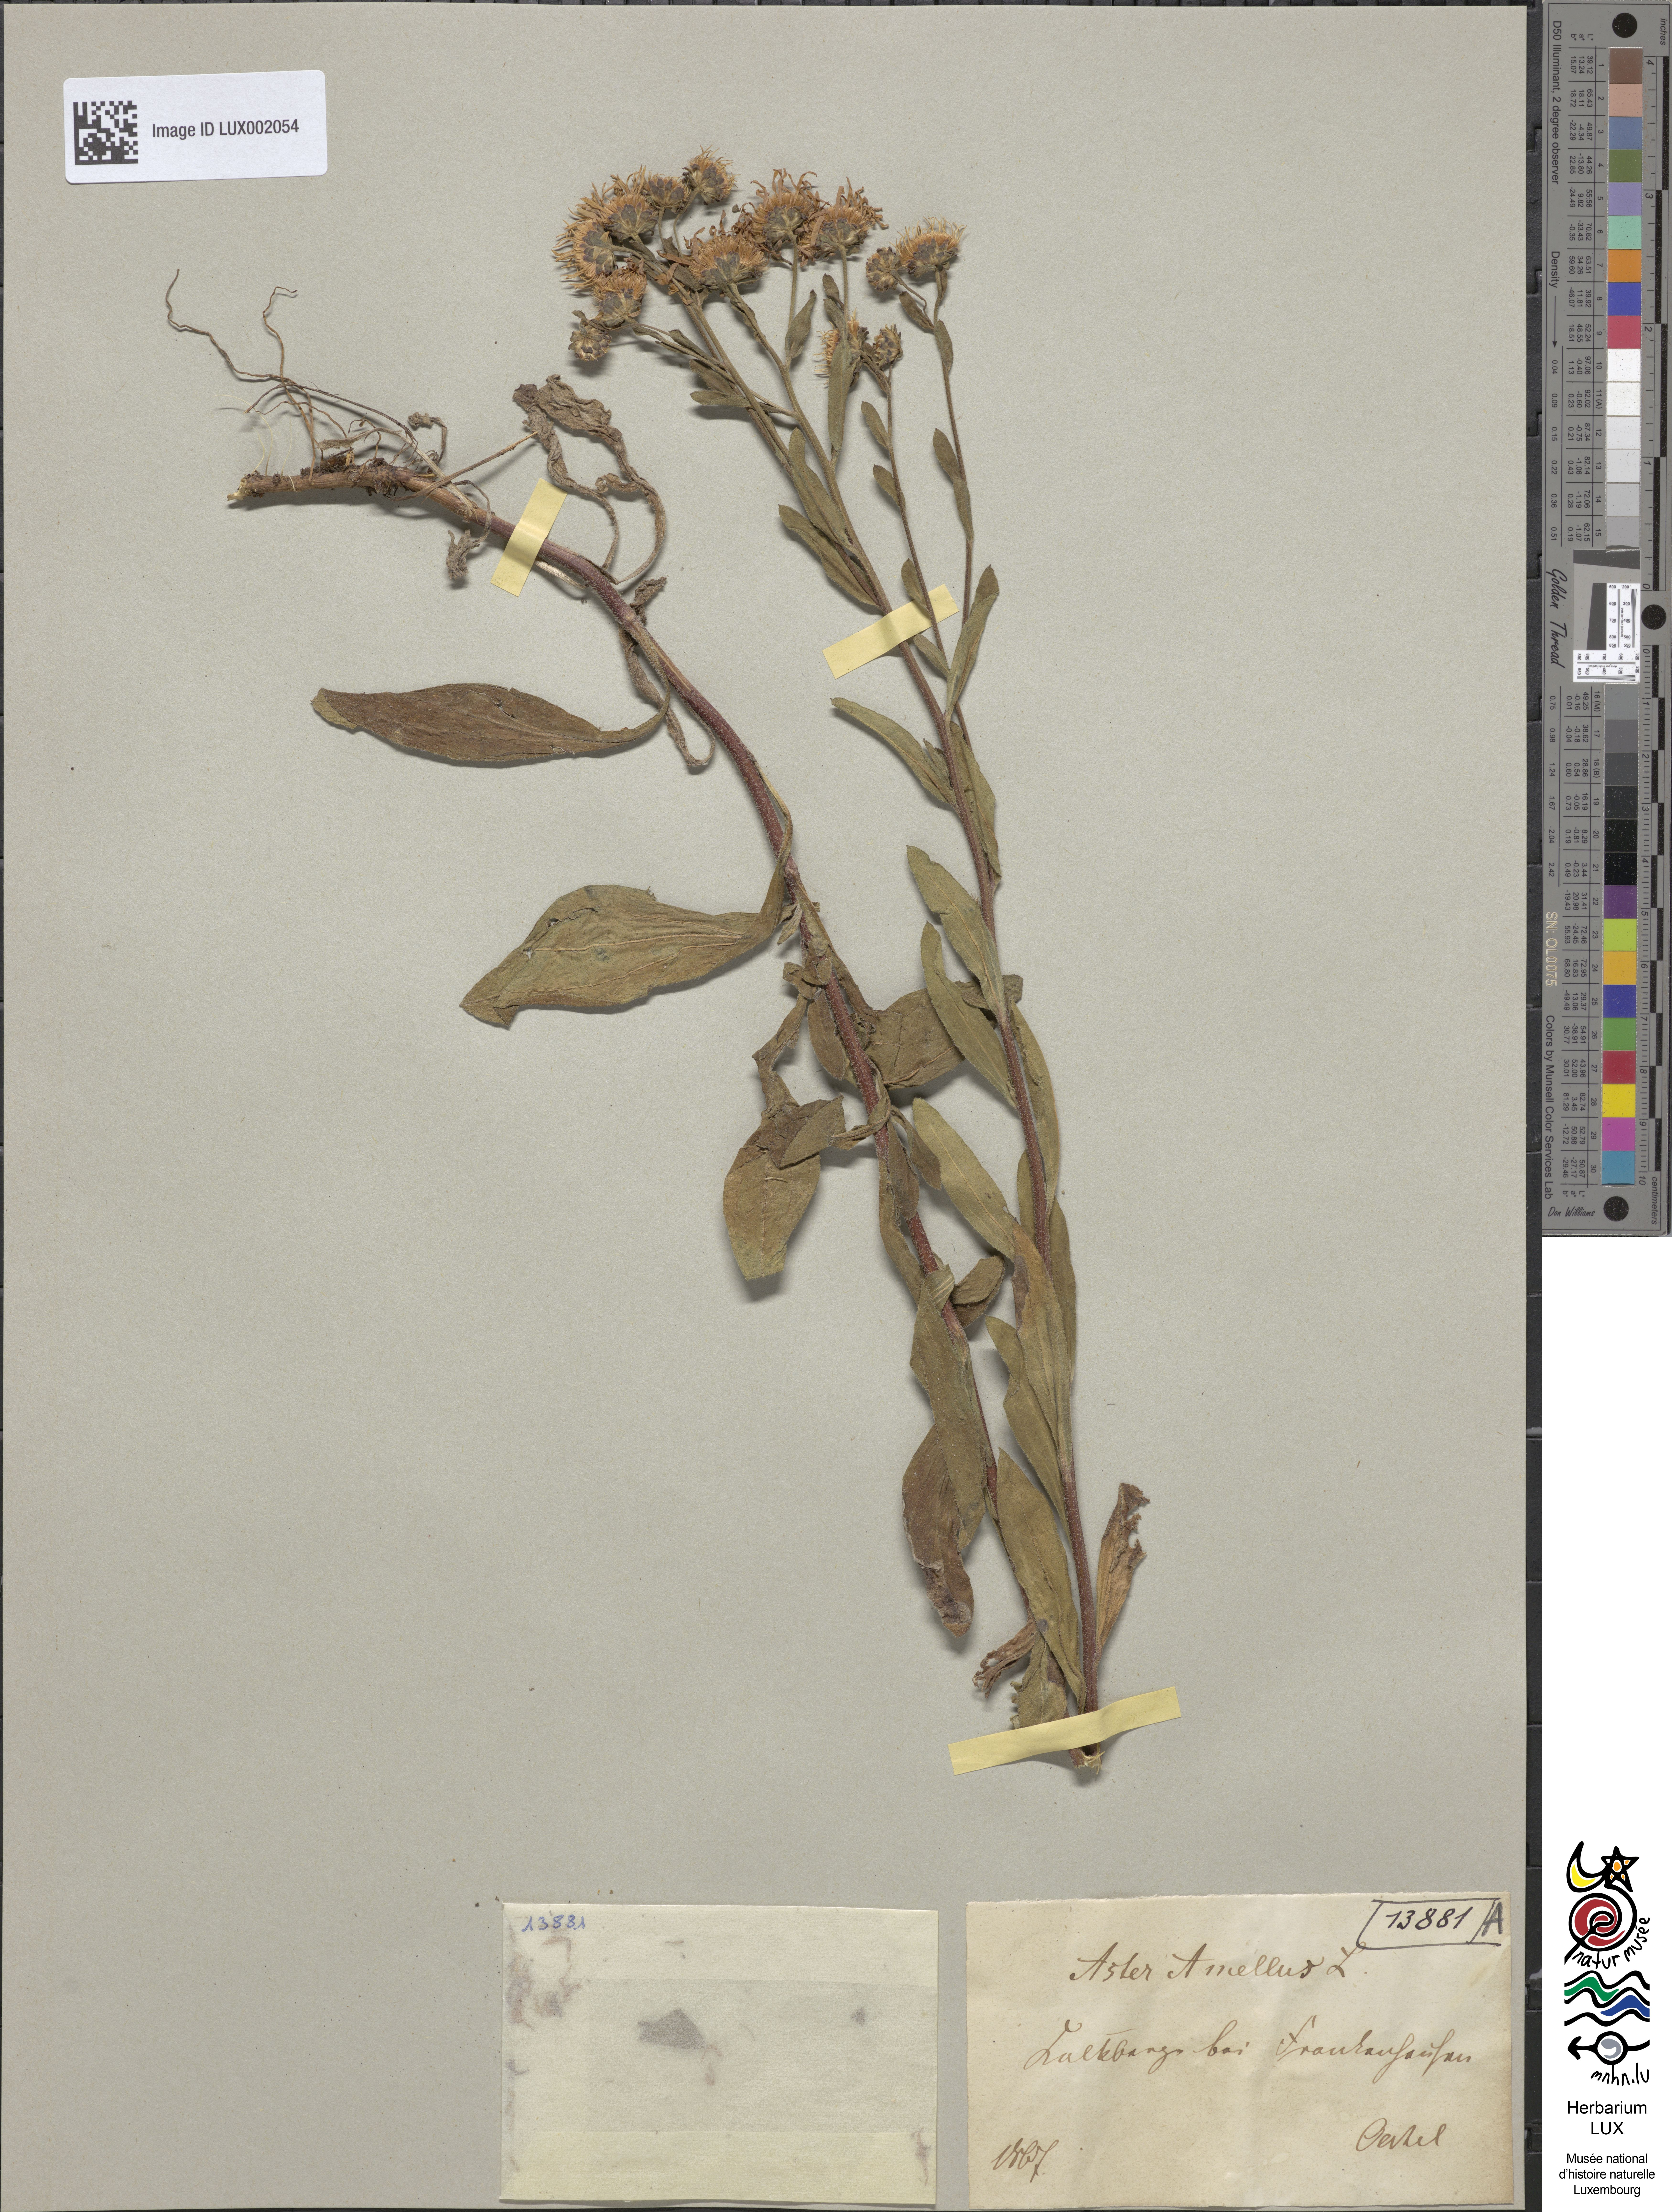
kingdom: Plantae
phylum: Tracheophyta
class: Magnoliopsida
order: Asterales
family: Asteraceae
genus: Aster
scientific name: Aster amellus
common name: European michaelmas daisy
